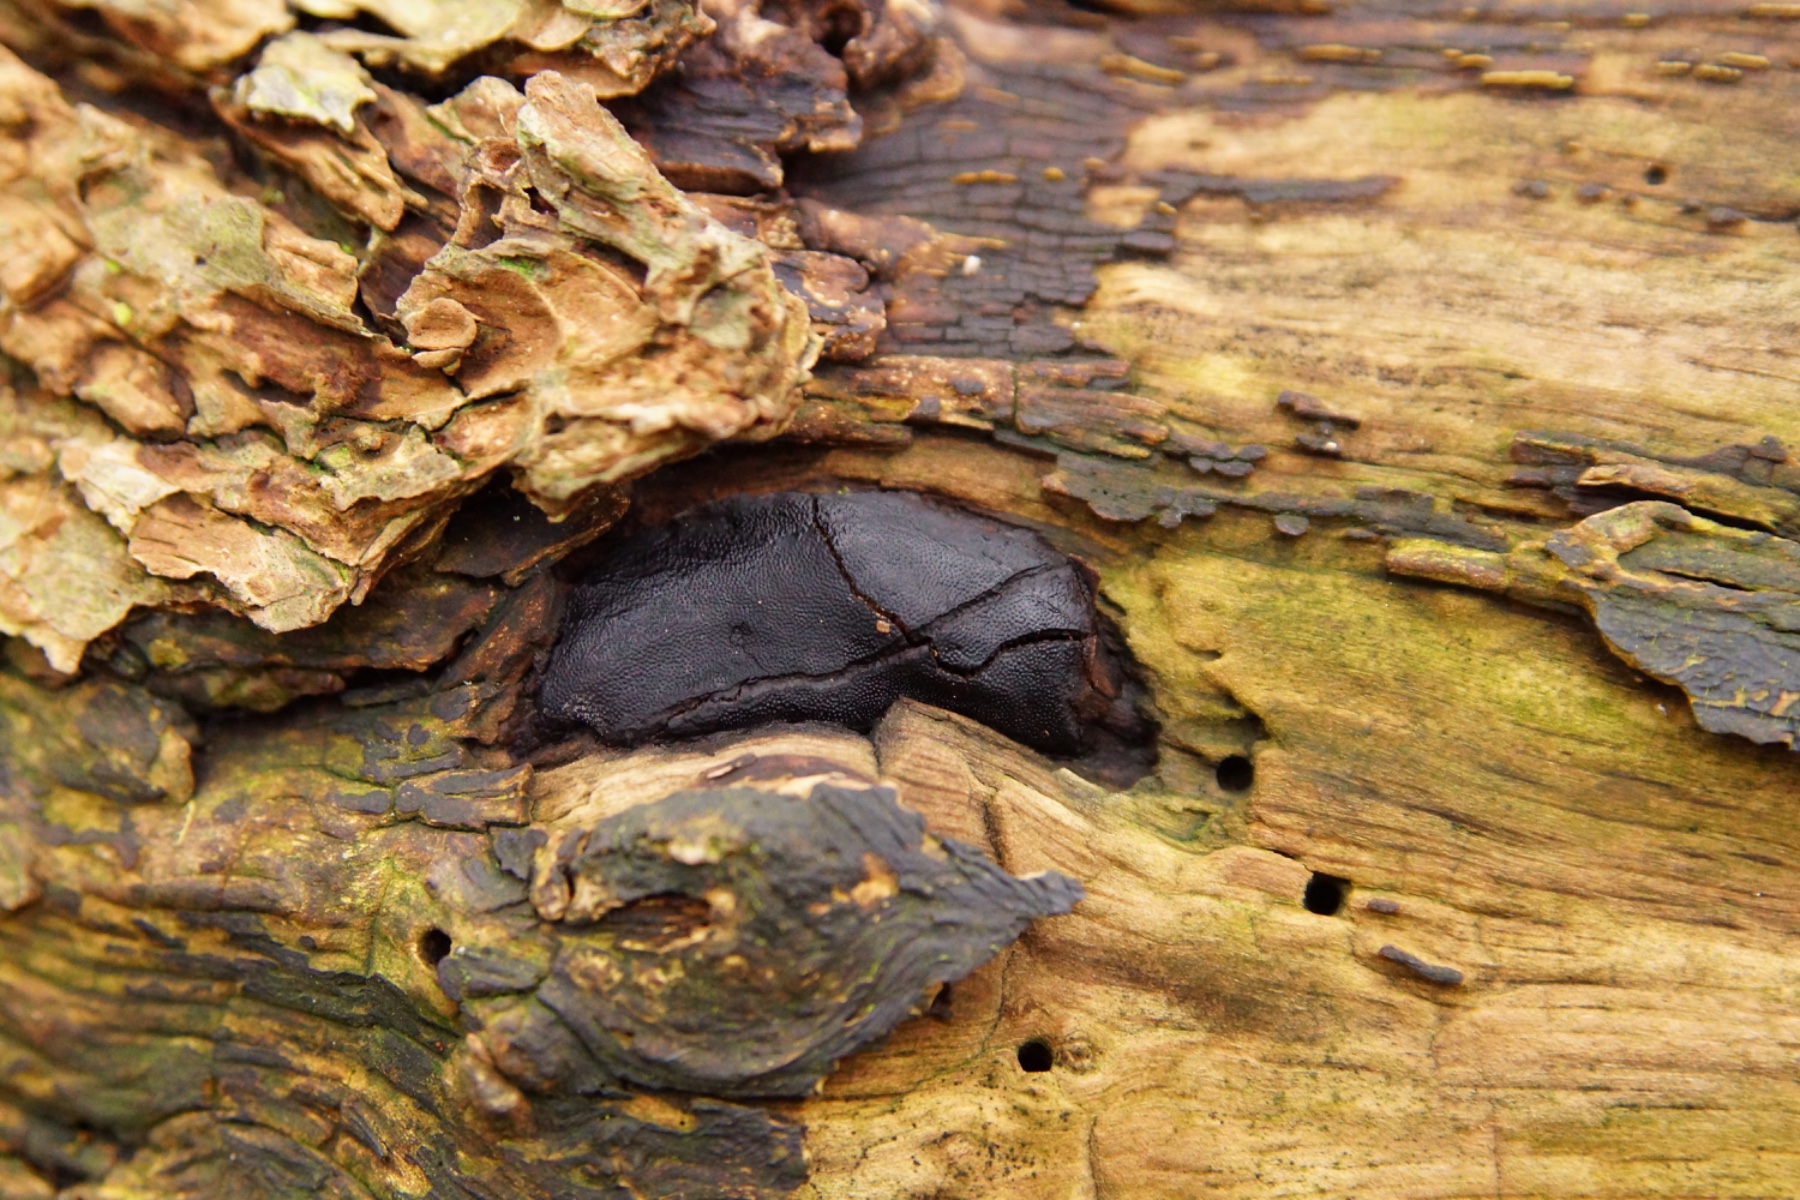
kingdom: Fungi
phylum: Ascomycota
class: Sordariomycetes
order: Boliniales
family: Boliniaceae
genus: Camarops
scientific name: Camarops polysperma
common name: elle-kulsnegl
